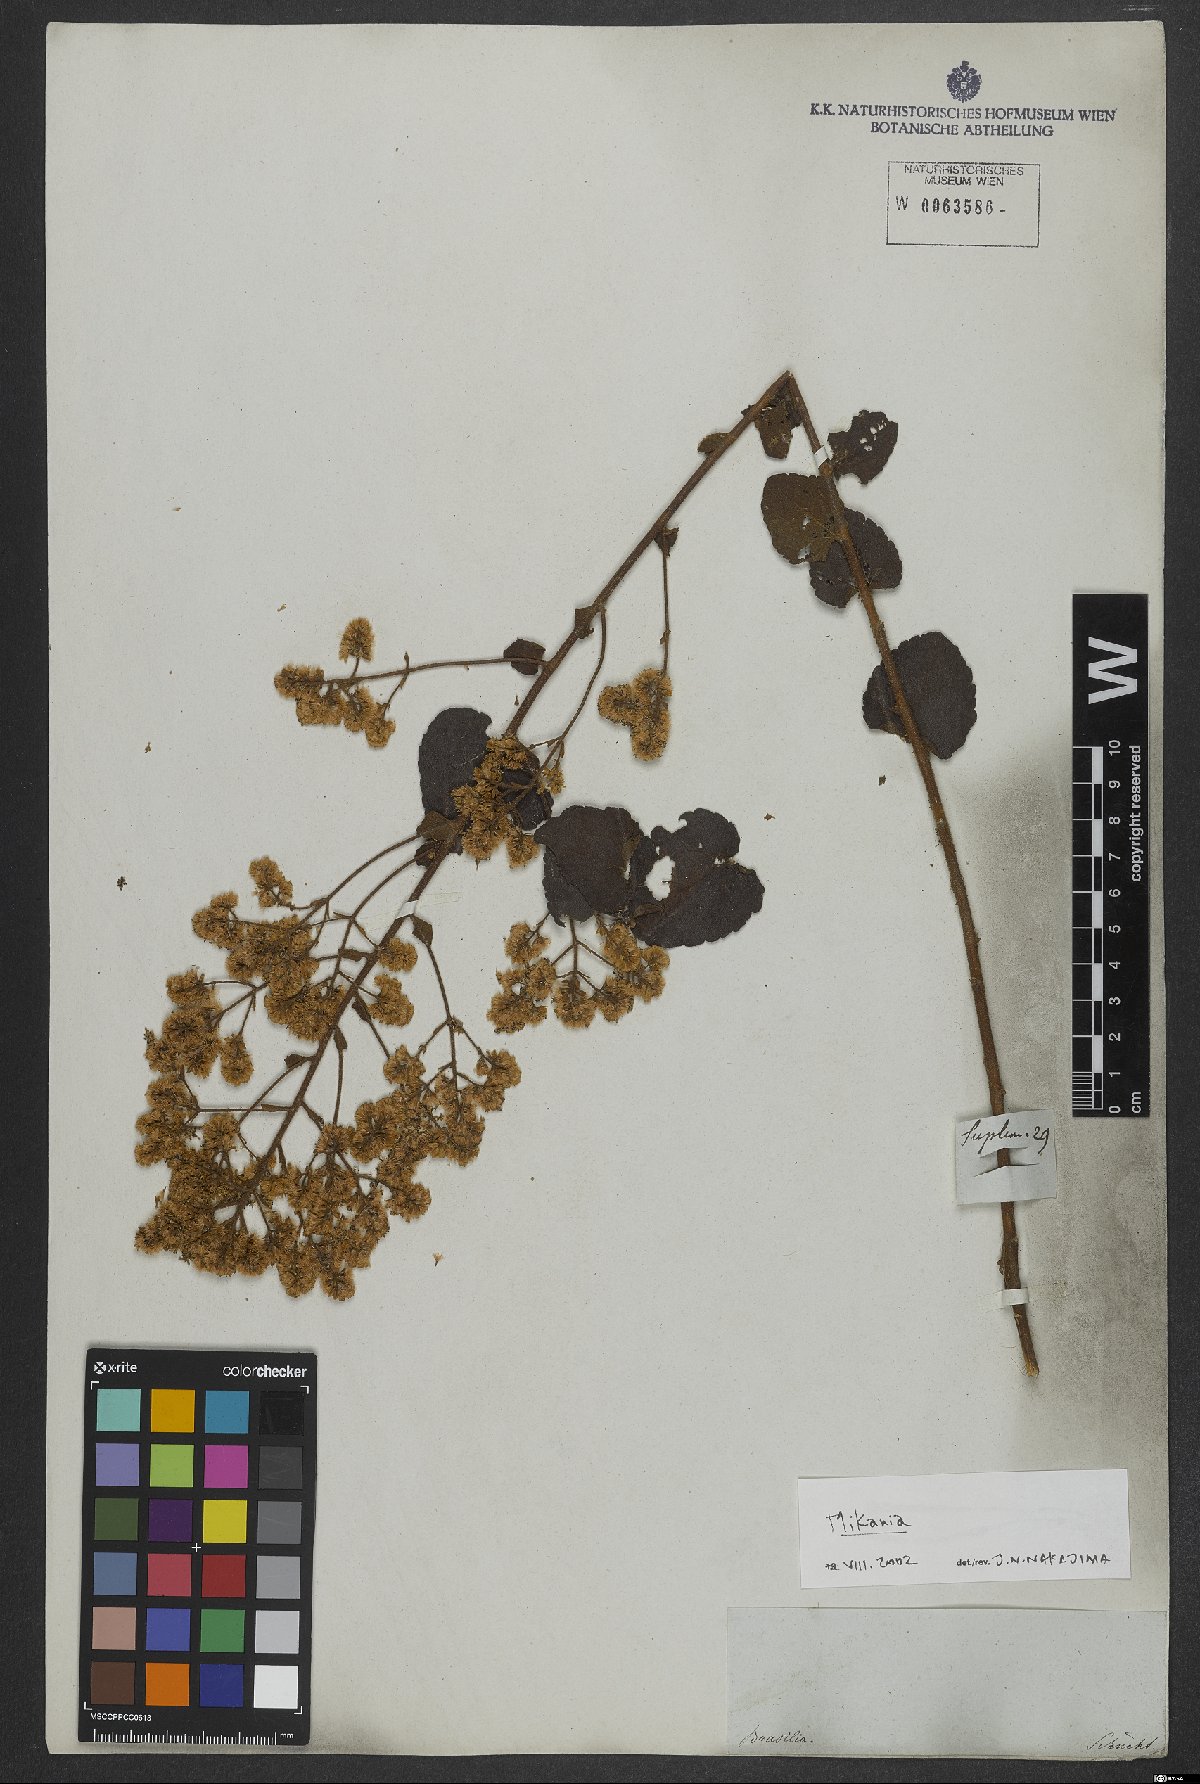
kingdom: Plantae
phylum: Tracheophyta
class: Magnoliopsida
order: Asterales
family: Asteraceae
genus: Mikania
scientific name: Mikania
